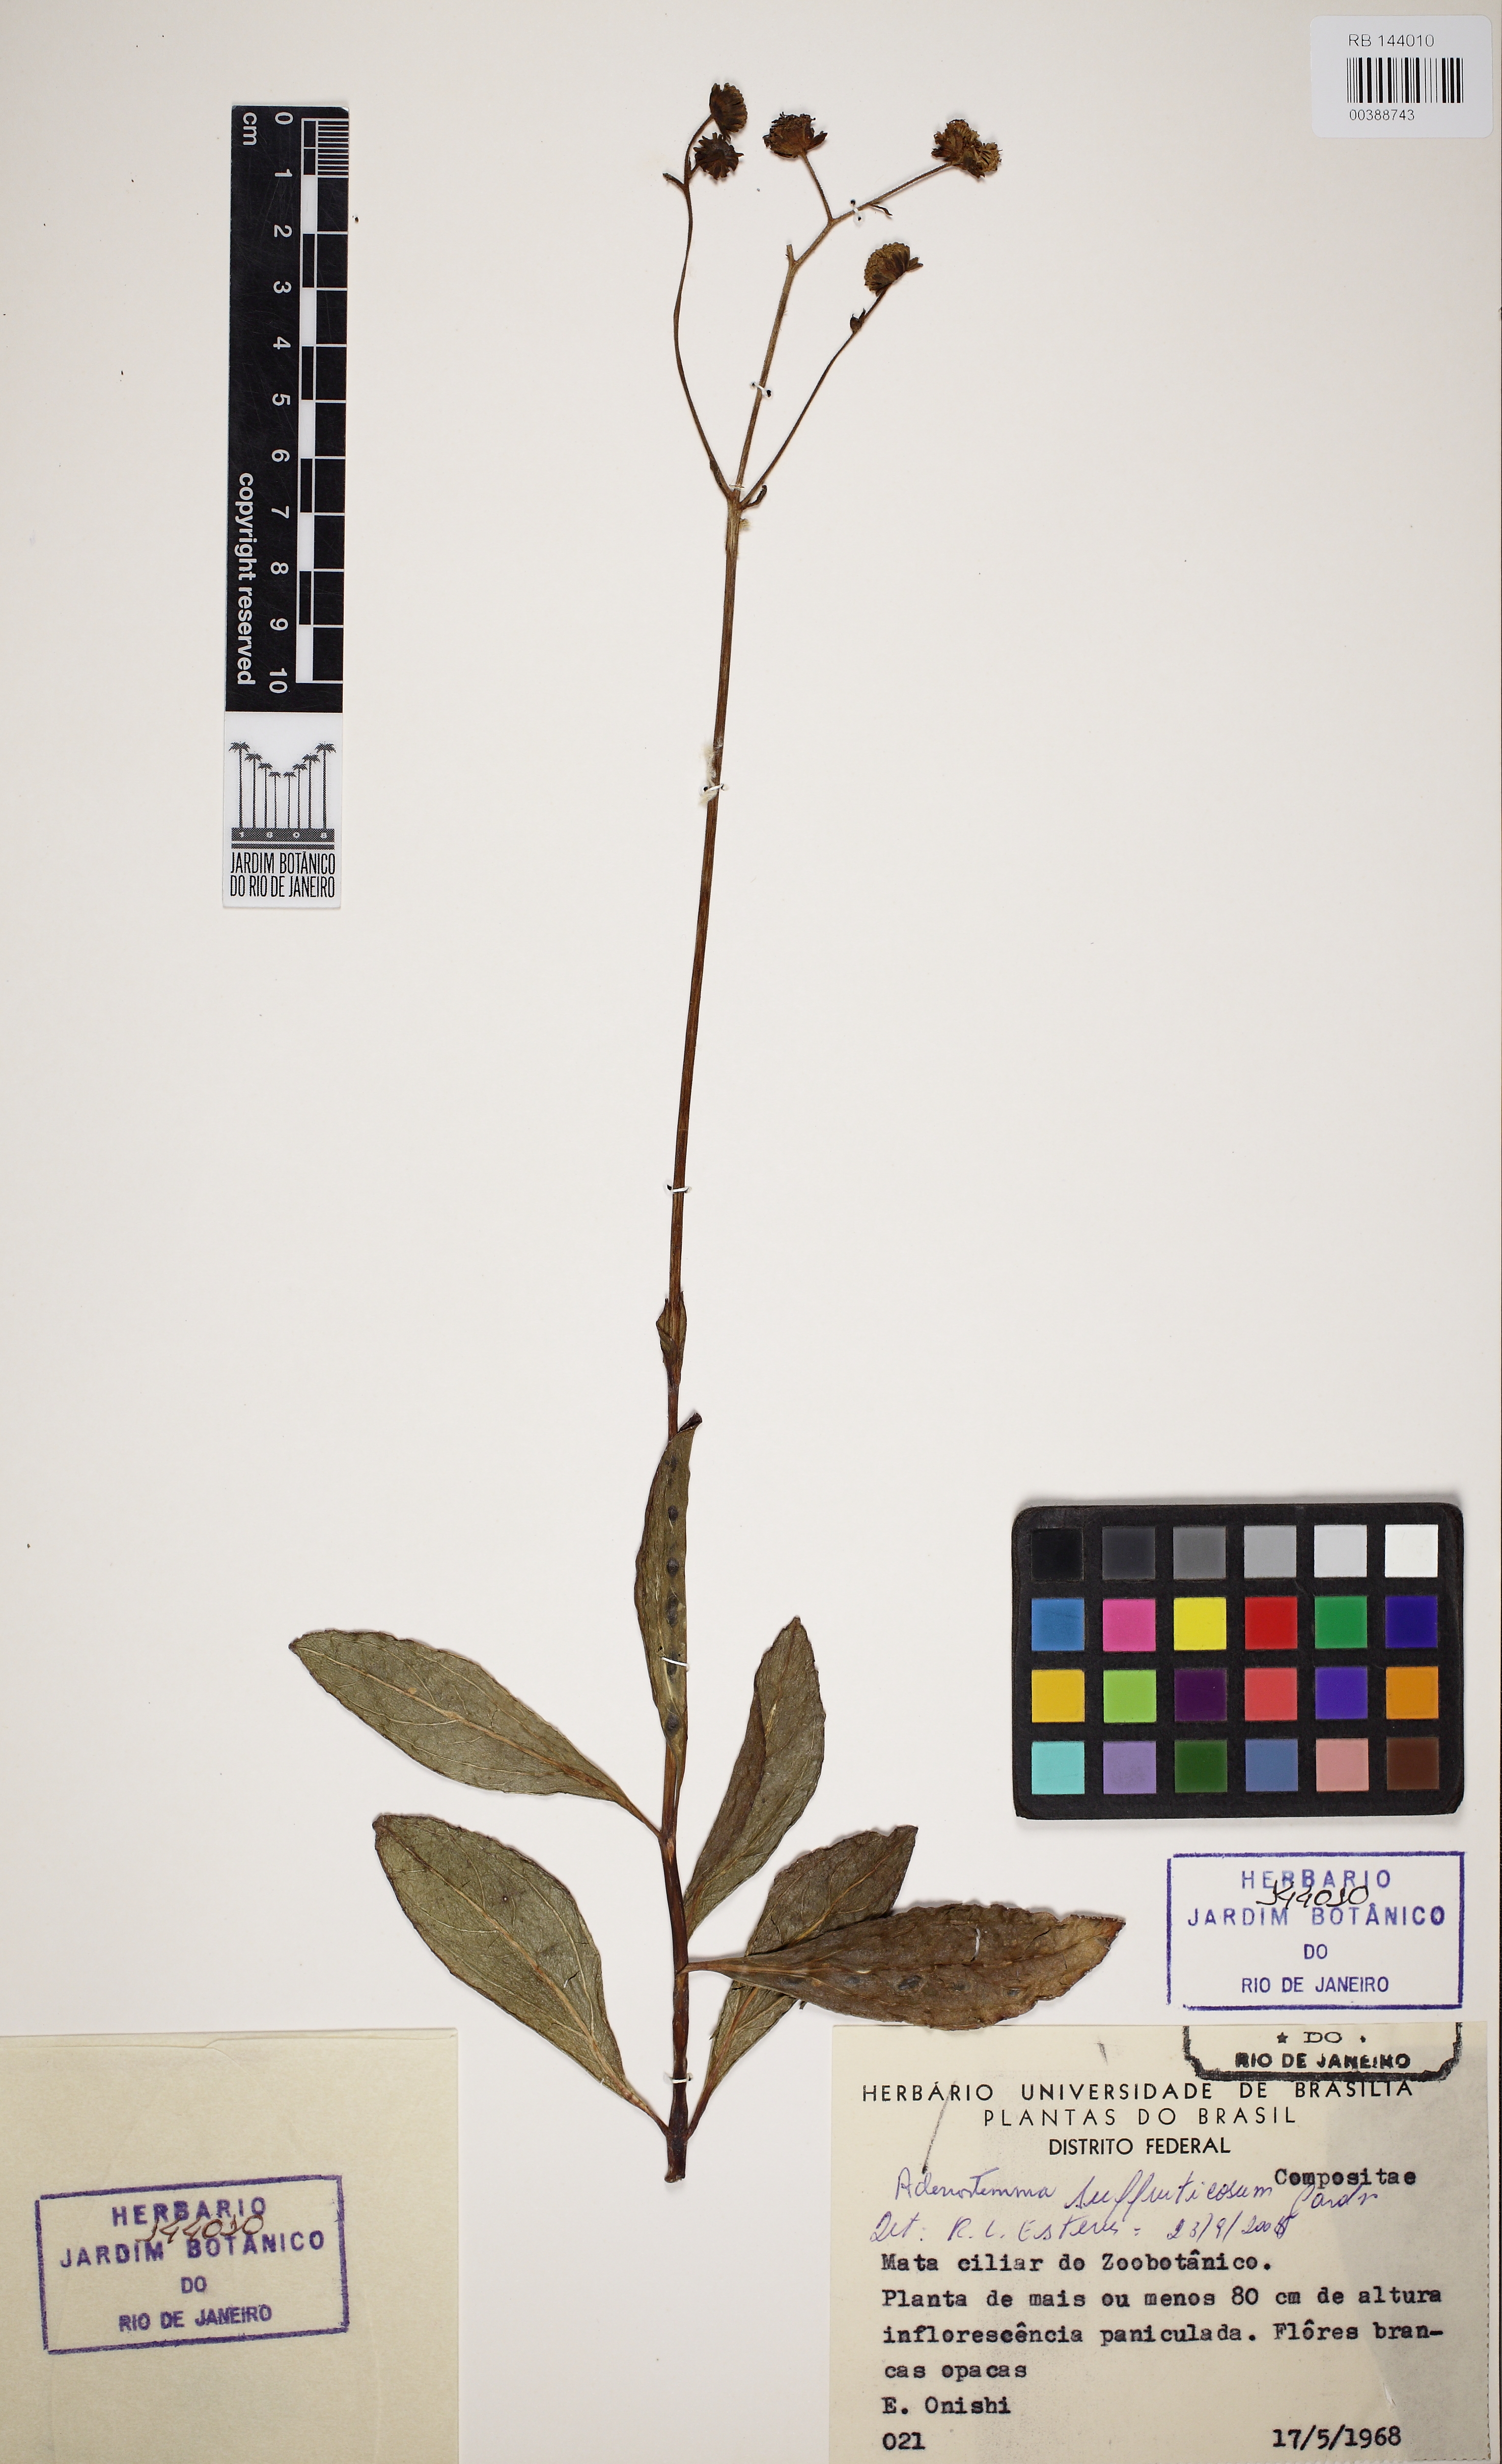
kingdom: Plantae
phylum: Tracheophyta
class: Magnoliopsida
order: Asterales
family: Asteraceae
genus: Adenostemma
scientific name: Adenostemma suffruticosum
